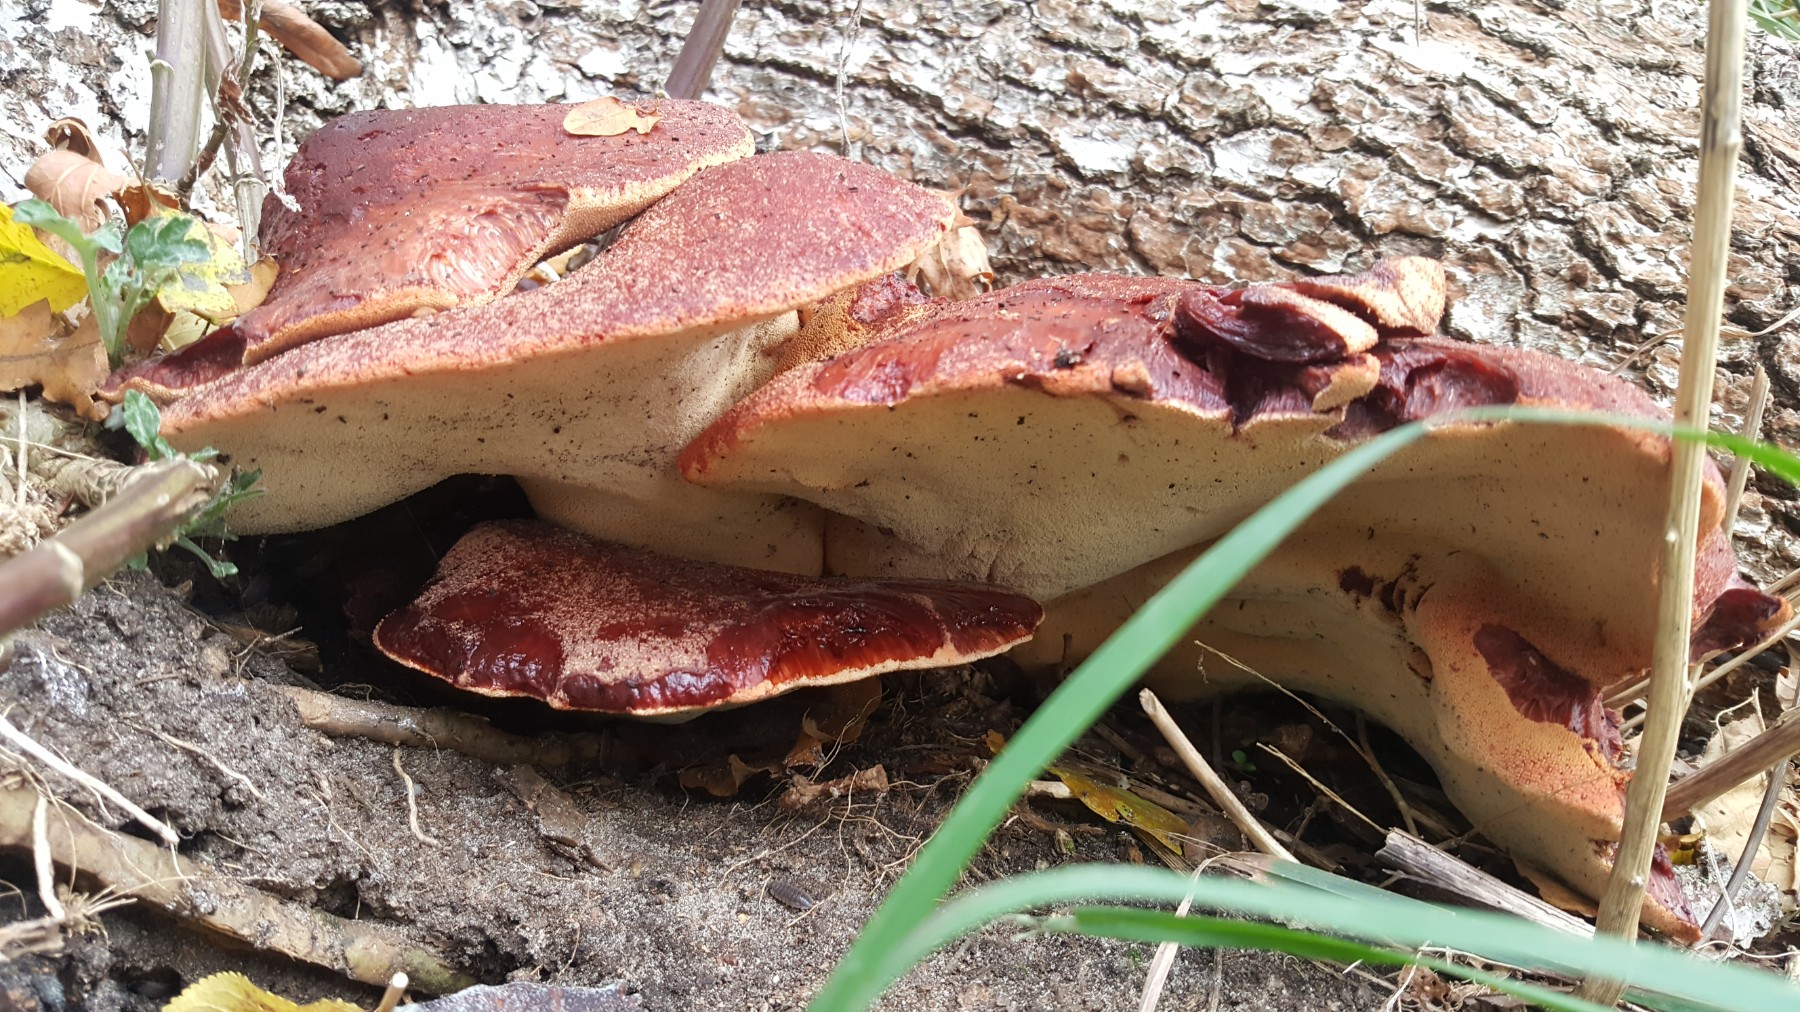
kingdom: Fungi
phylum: Basidiomycota
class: Agaricomycetes
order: Agaricales
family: Fistulinaceae
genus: Fistulina
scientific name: Fistulina hepatica
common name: oksetunge
